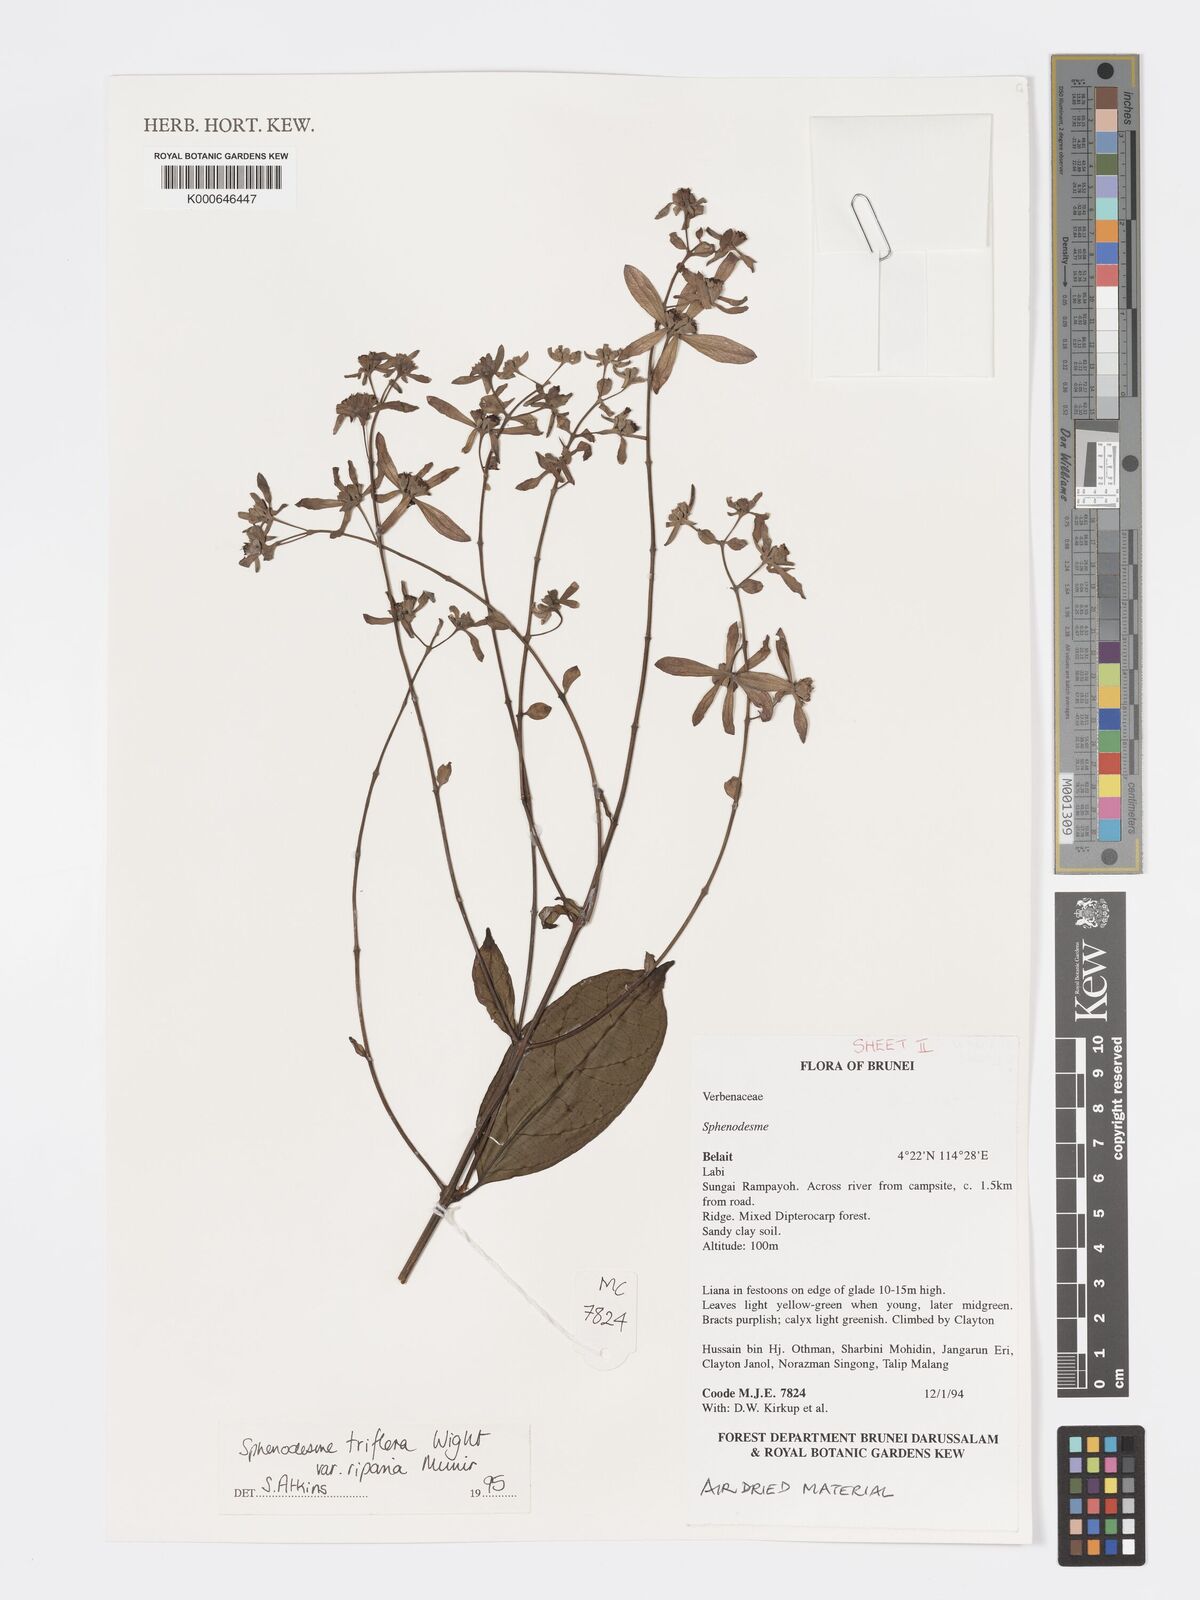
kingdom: Plantae
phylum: Tracheophyta
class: Magnoliopsida
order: Lamiales
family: Lamiaceae
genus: Sphenodesme
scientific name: Sphenodesme
